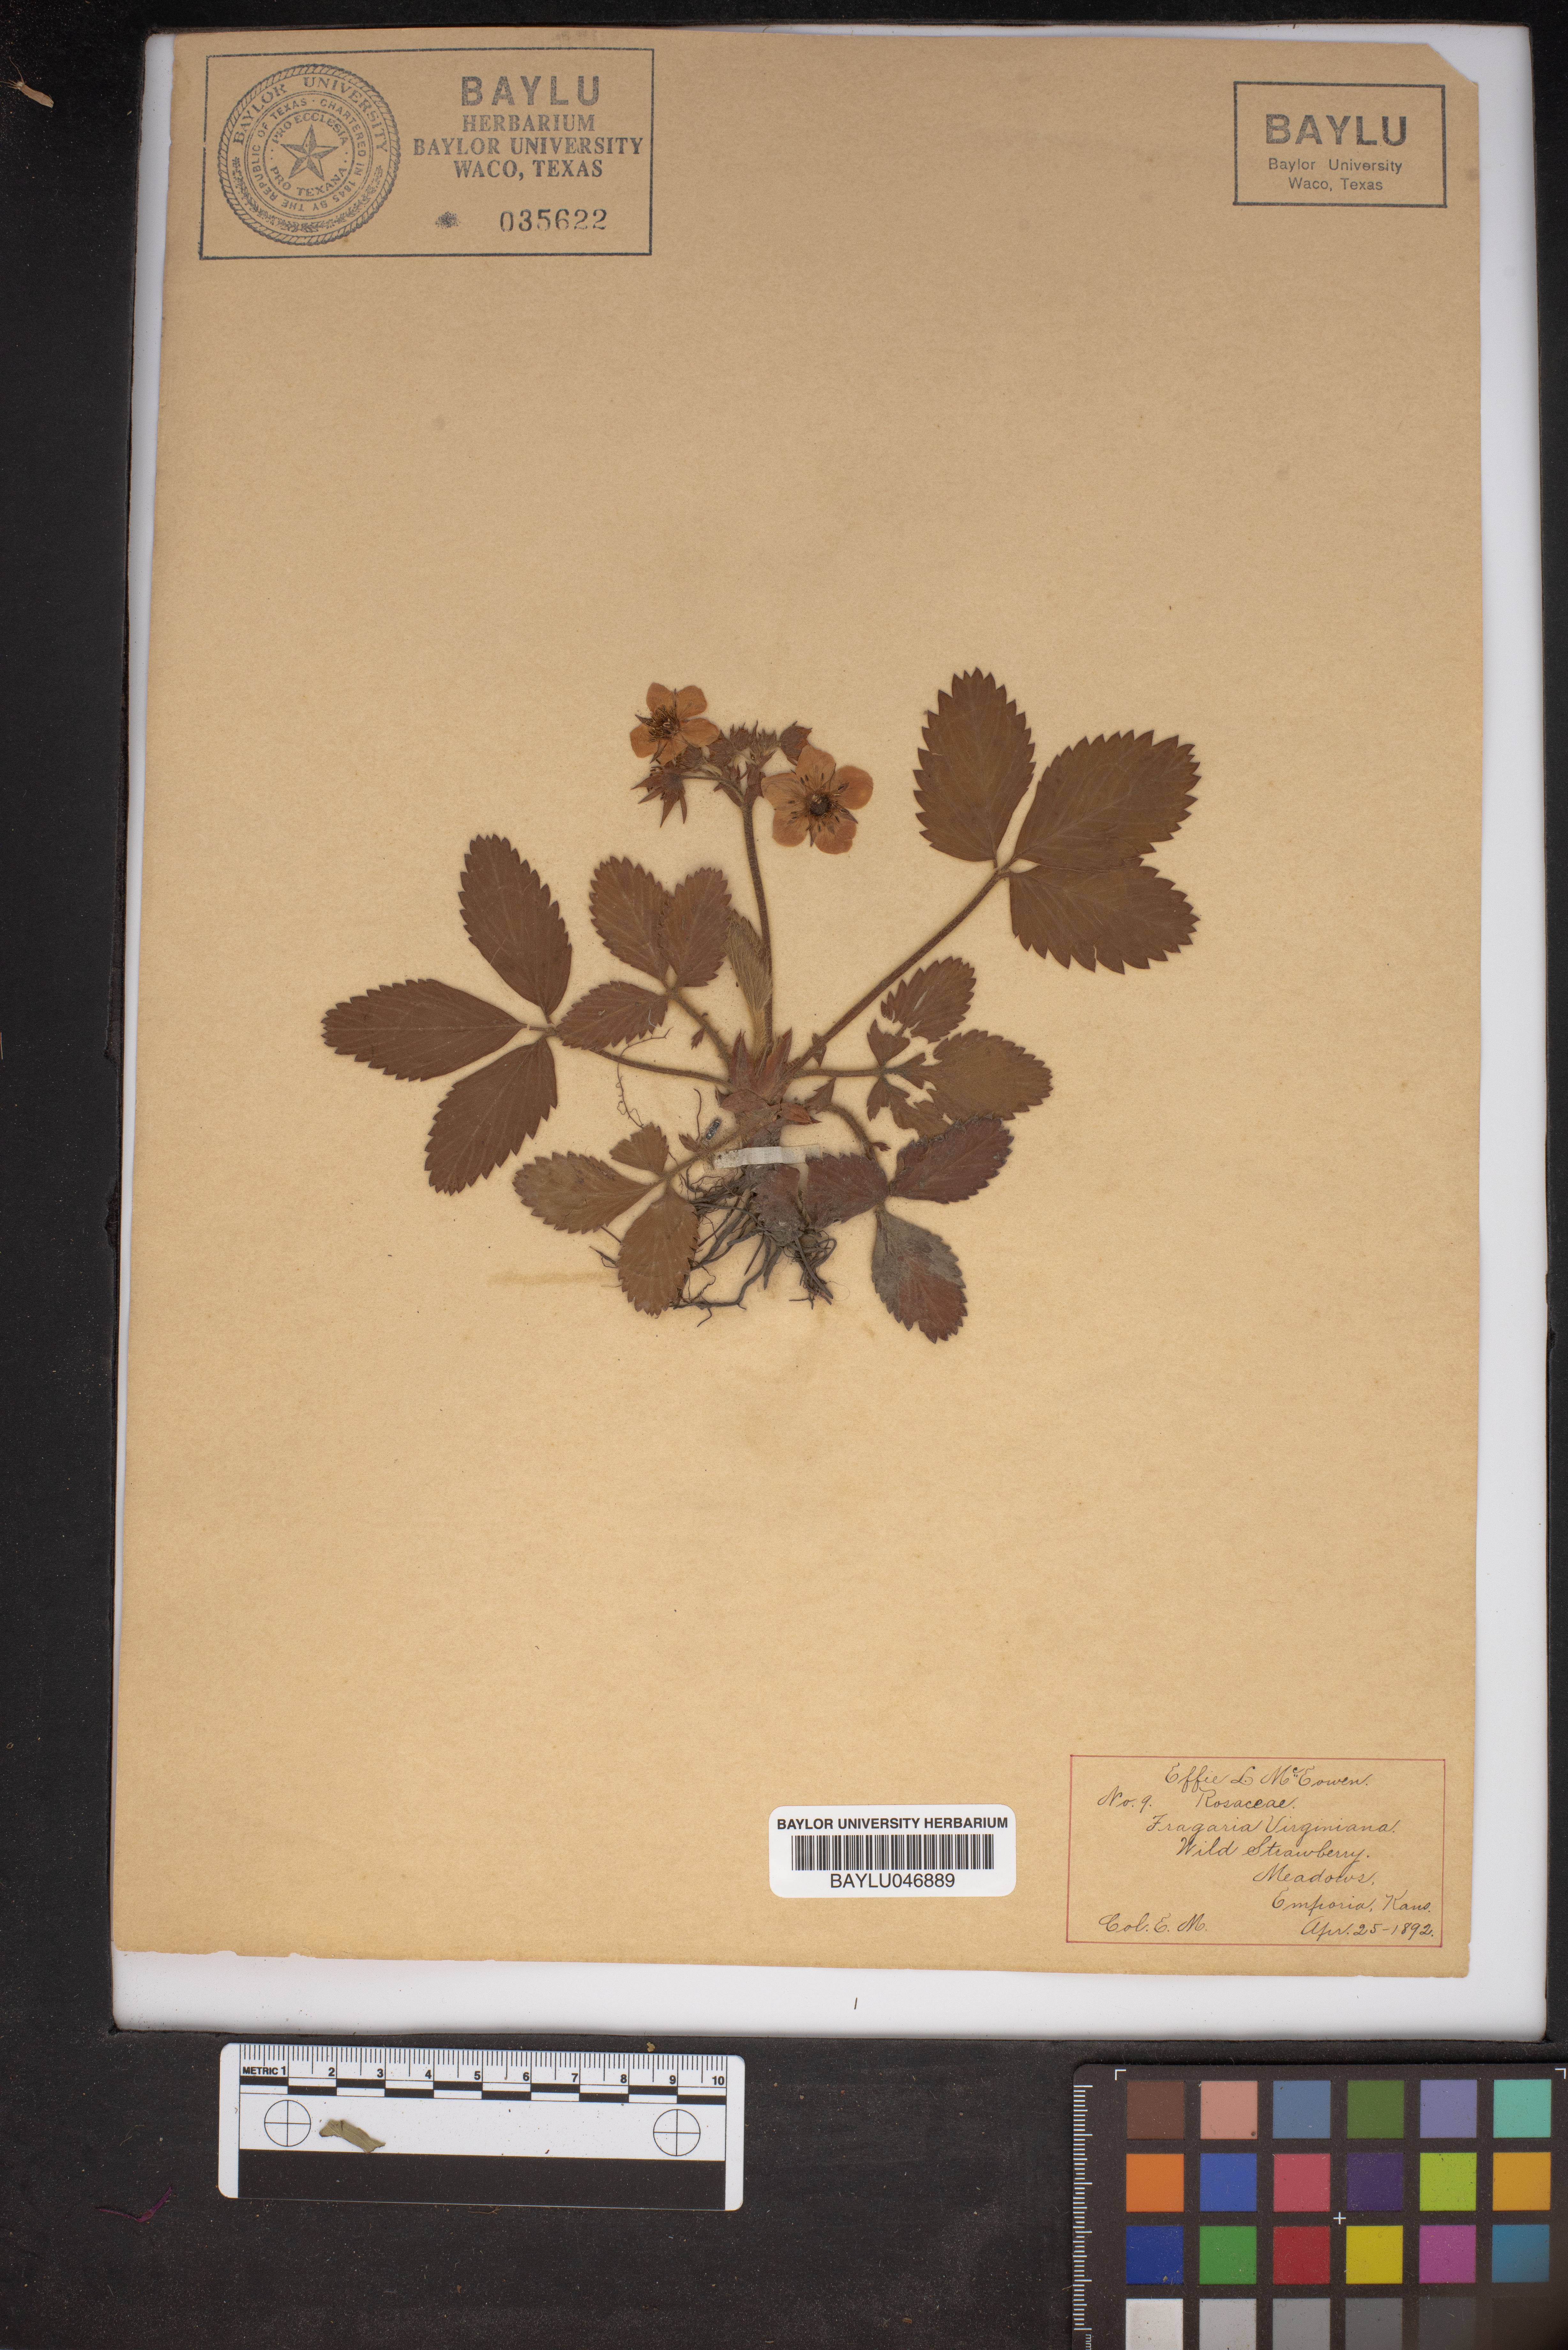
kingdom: Plantae
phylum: Tracheophyta
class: Magnoliopsida
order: Rosales
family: Rosaceae
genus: Fragaria
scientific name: Fragaria virginiana
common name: Thickleaved wild strawberry
